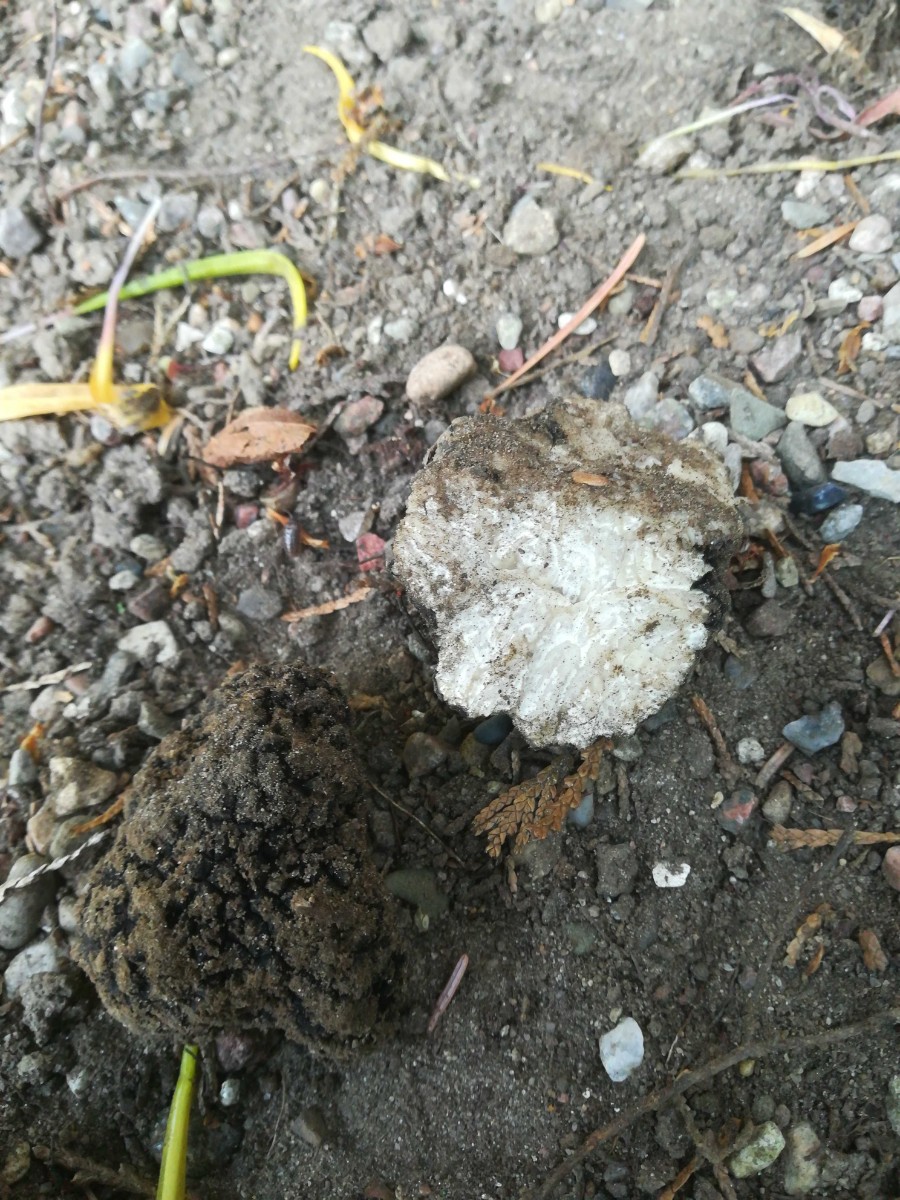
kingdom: Fungi
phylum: Ascomycota
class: Pezizomycetes
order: Pezizales
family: Tuberaceae
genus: Tuber
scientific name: Tuber aestivum
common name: sommer-trøffel
